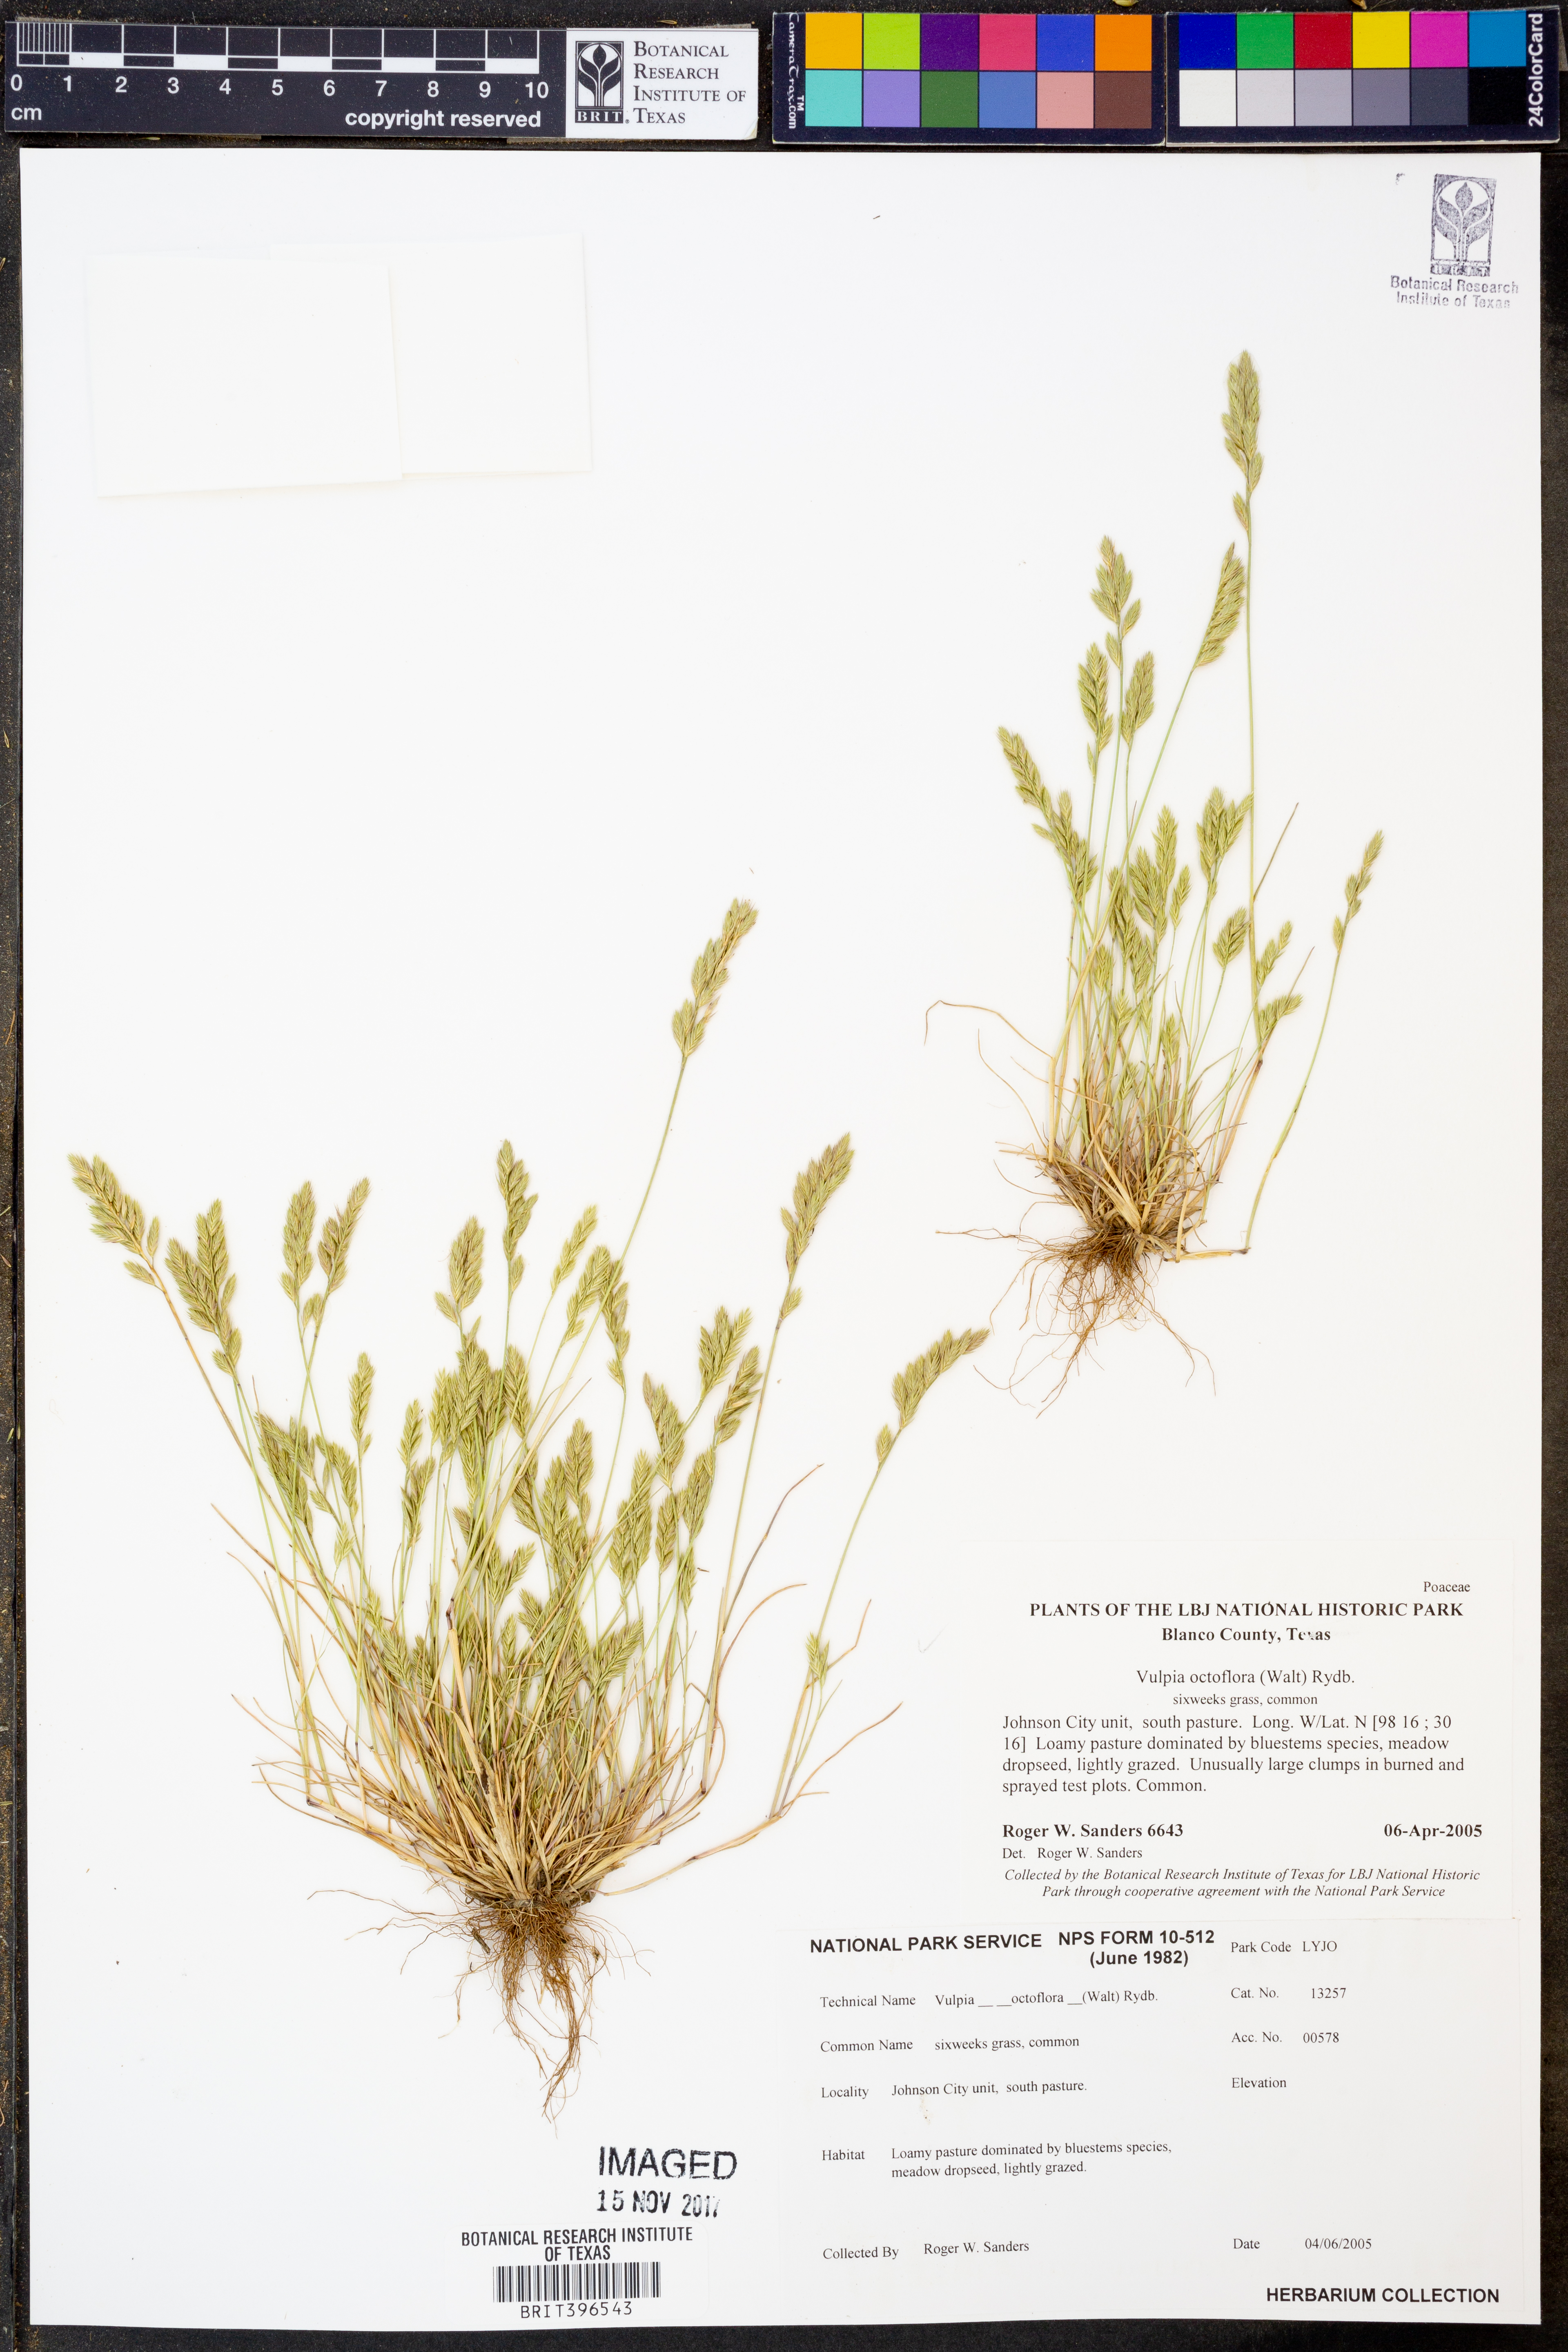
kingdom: Plantae
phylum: Tracheophyta
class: Liliopsida
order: Poales
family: Poaceae
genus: Festuca
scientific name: Festuca octoflora
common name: Sixweeks grass
